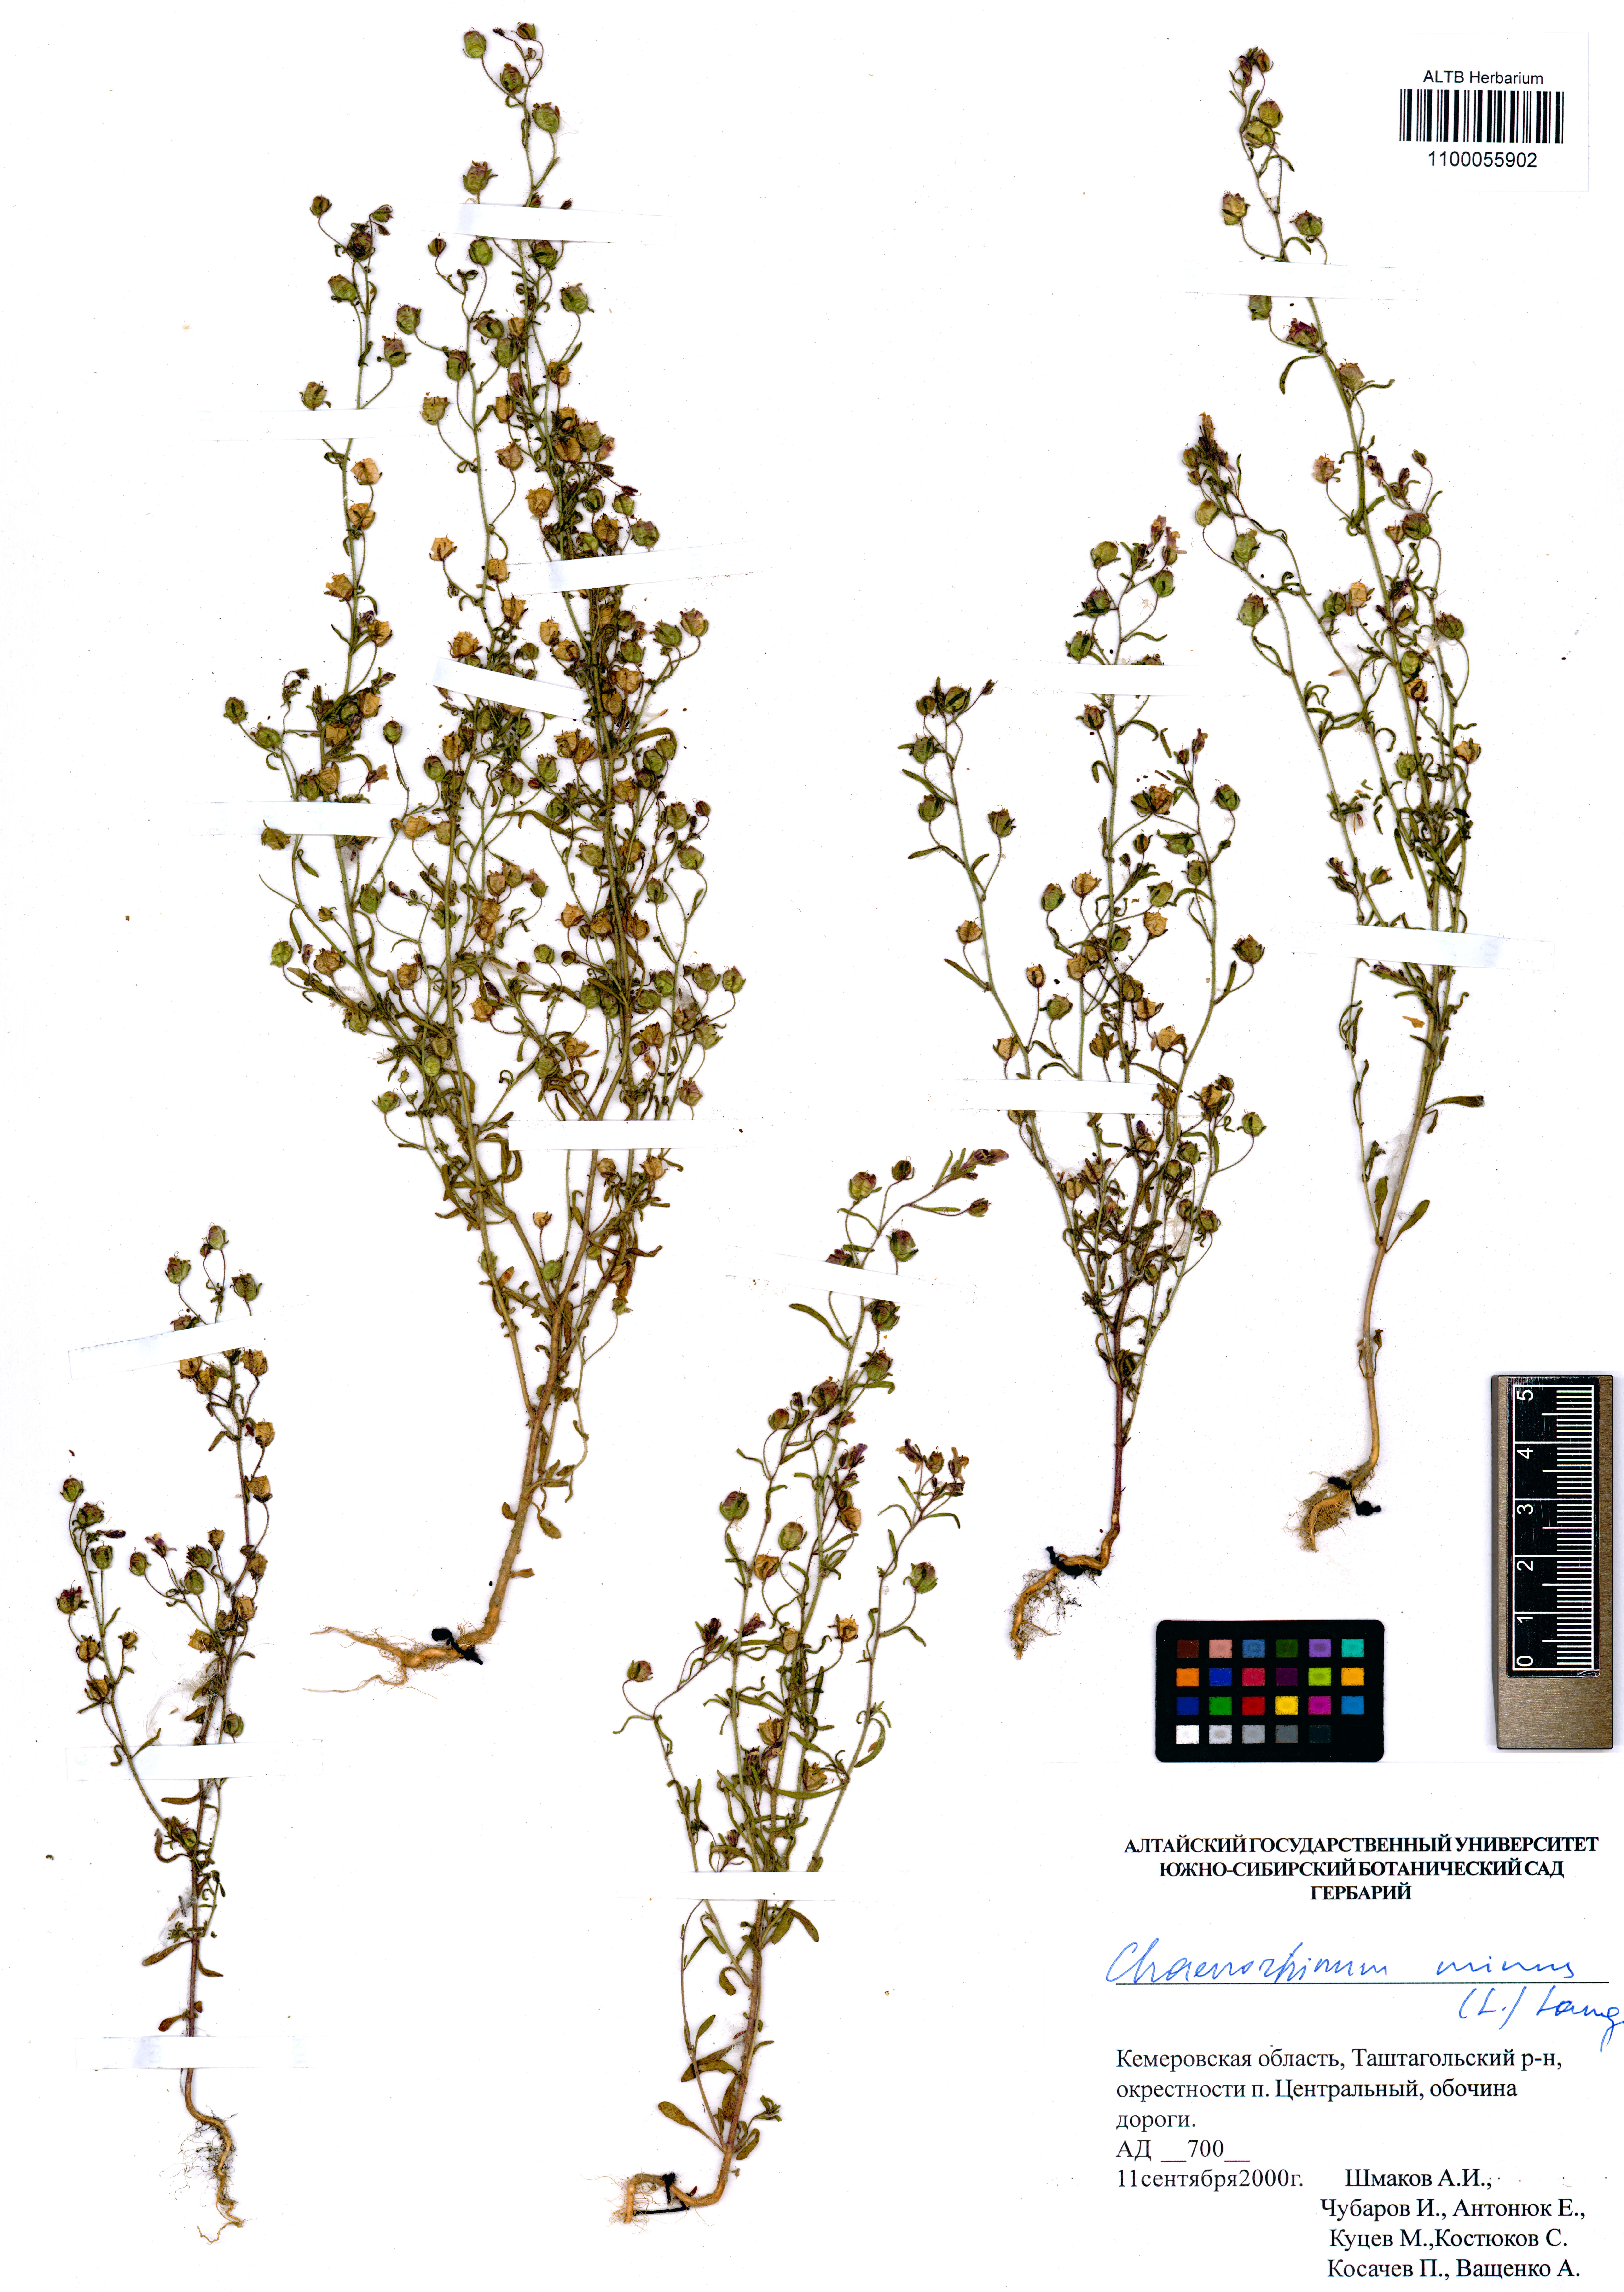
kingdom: Plantae
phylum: Tracheophyta
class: Magnoliopsida
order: Lamiales
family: Plantaginaceae
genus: Chaenorhinum
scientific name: Chaenorhinum minus
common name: Dwarf snapdragon
